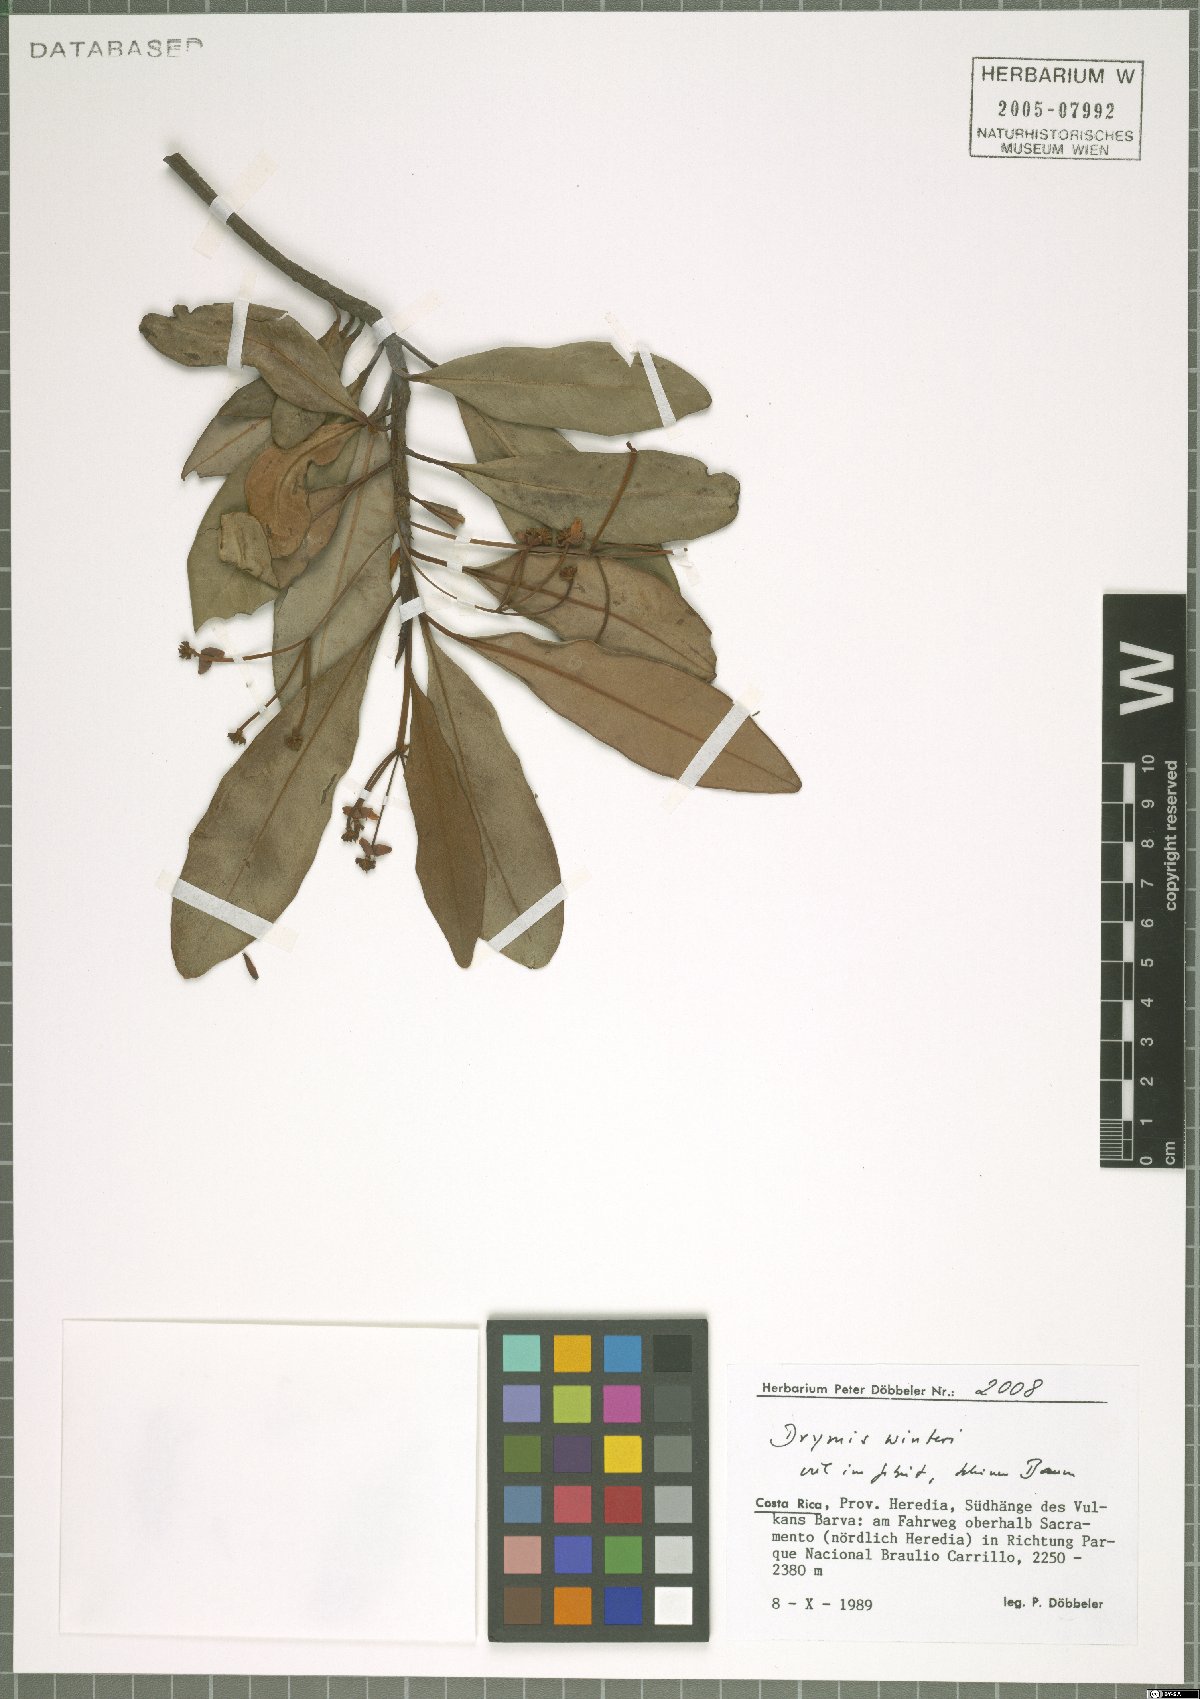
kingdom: Plantae
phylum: Tracheophyta
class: Magnoliopsida
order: Canellales
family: Winteraceae
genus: Drimys
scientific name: Drimys winteri
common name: Winter's-bark
